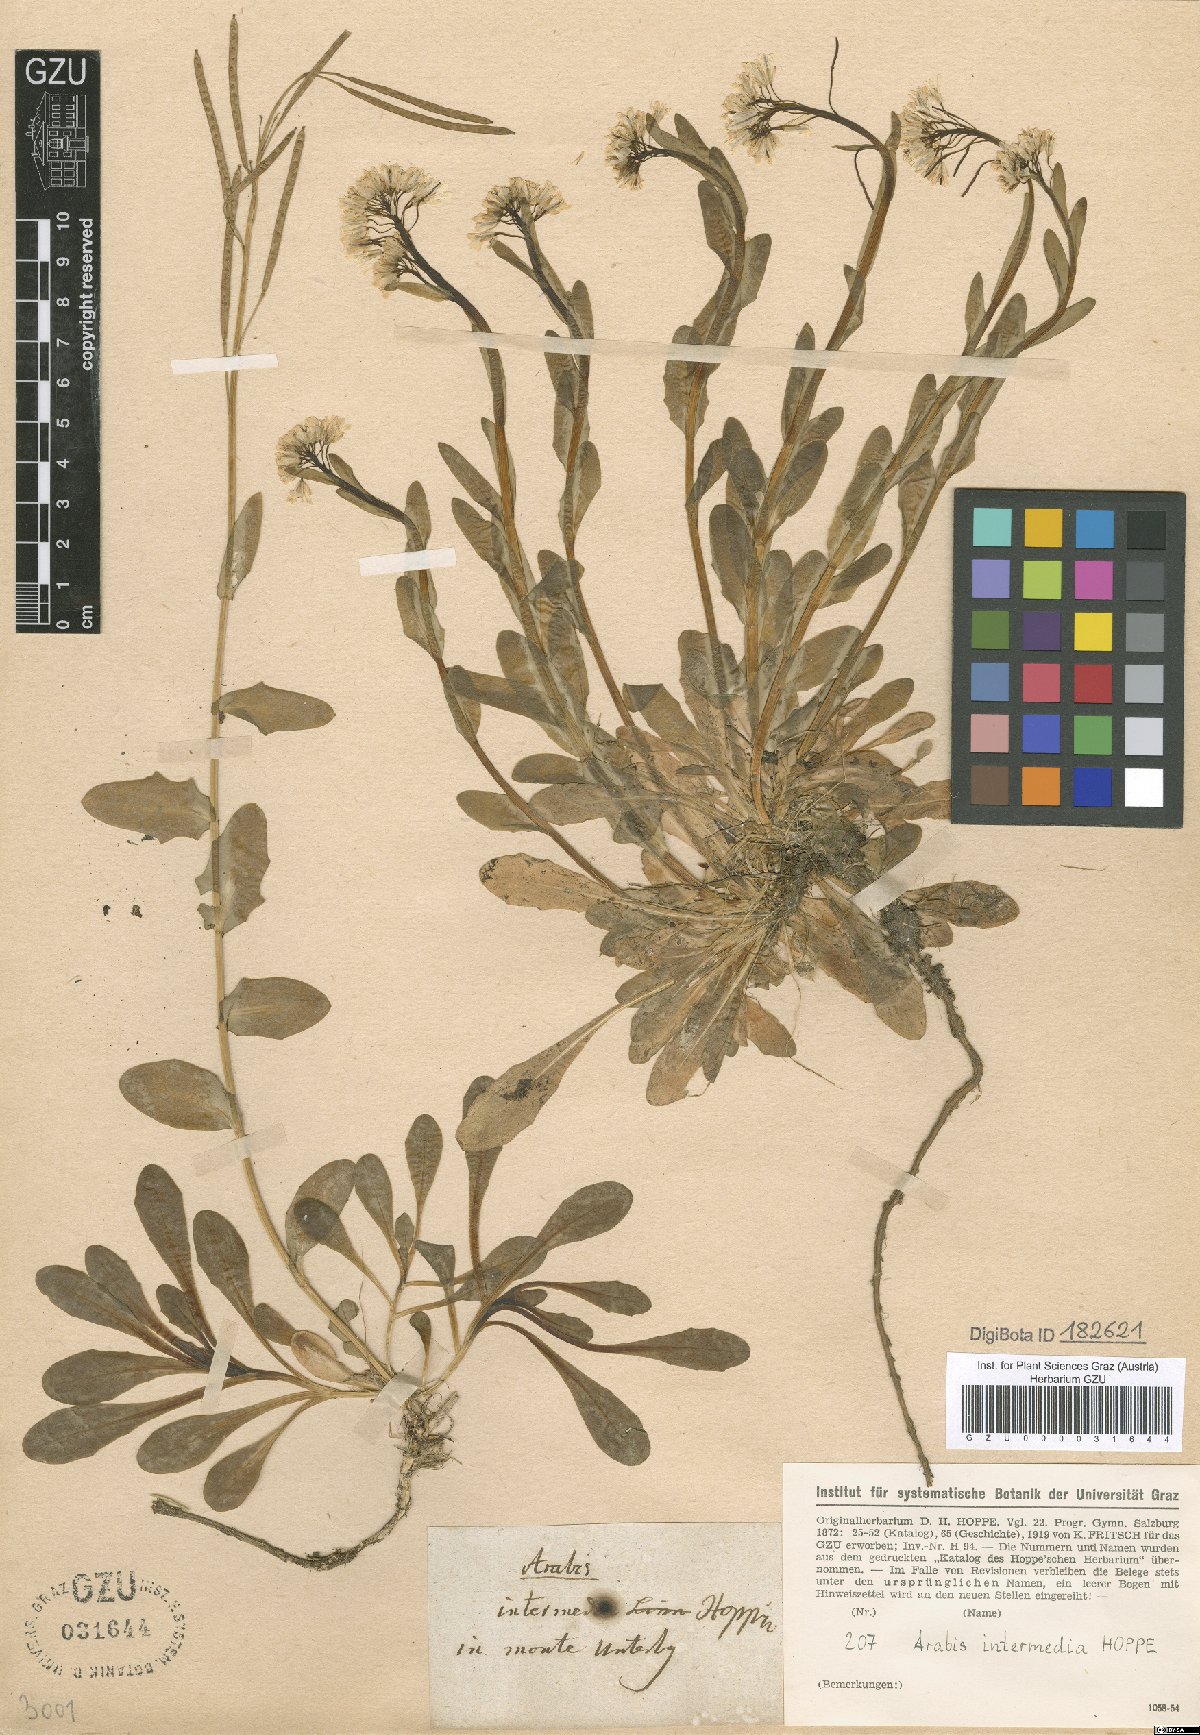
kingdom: Plantae
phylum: Tracheophyta
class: Magnoliopsida
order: Brassicales
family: Brassicaceae
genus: Arabis
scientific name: Arabis soyeri
